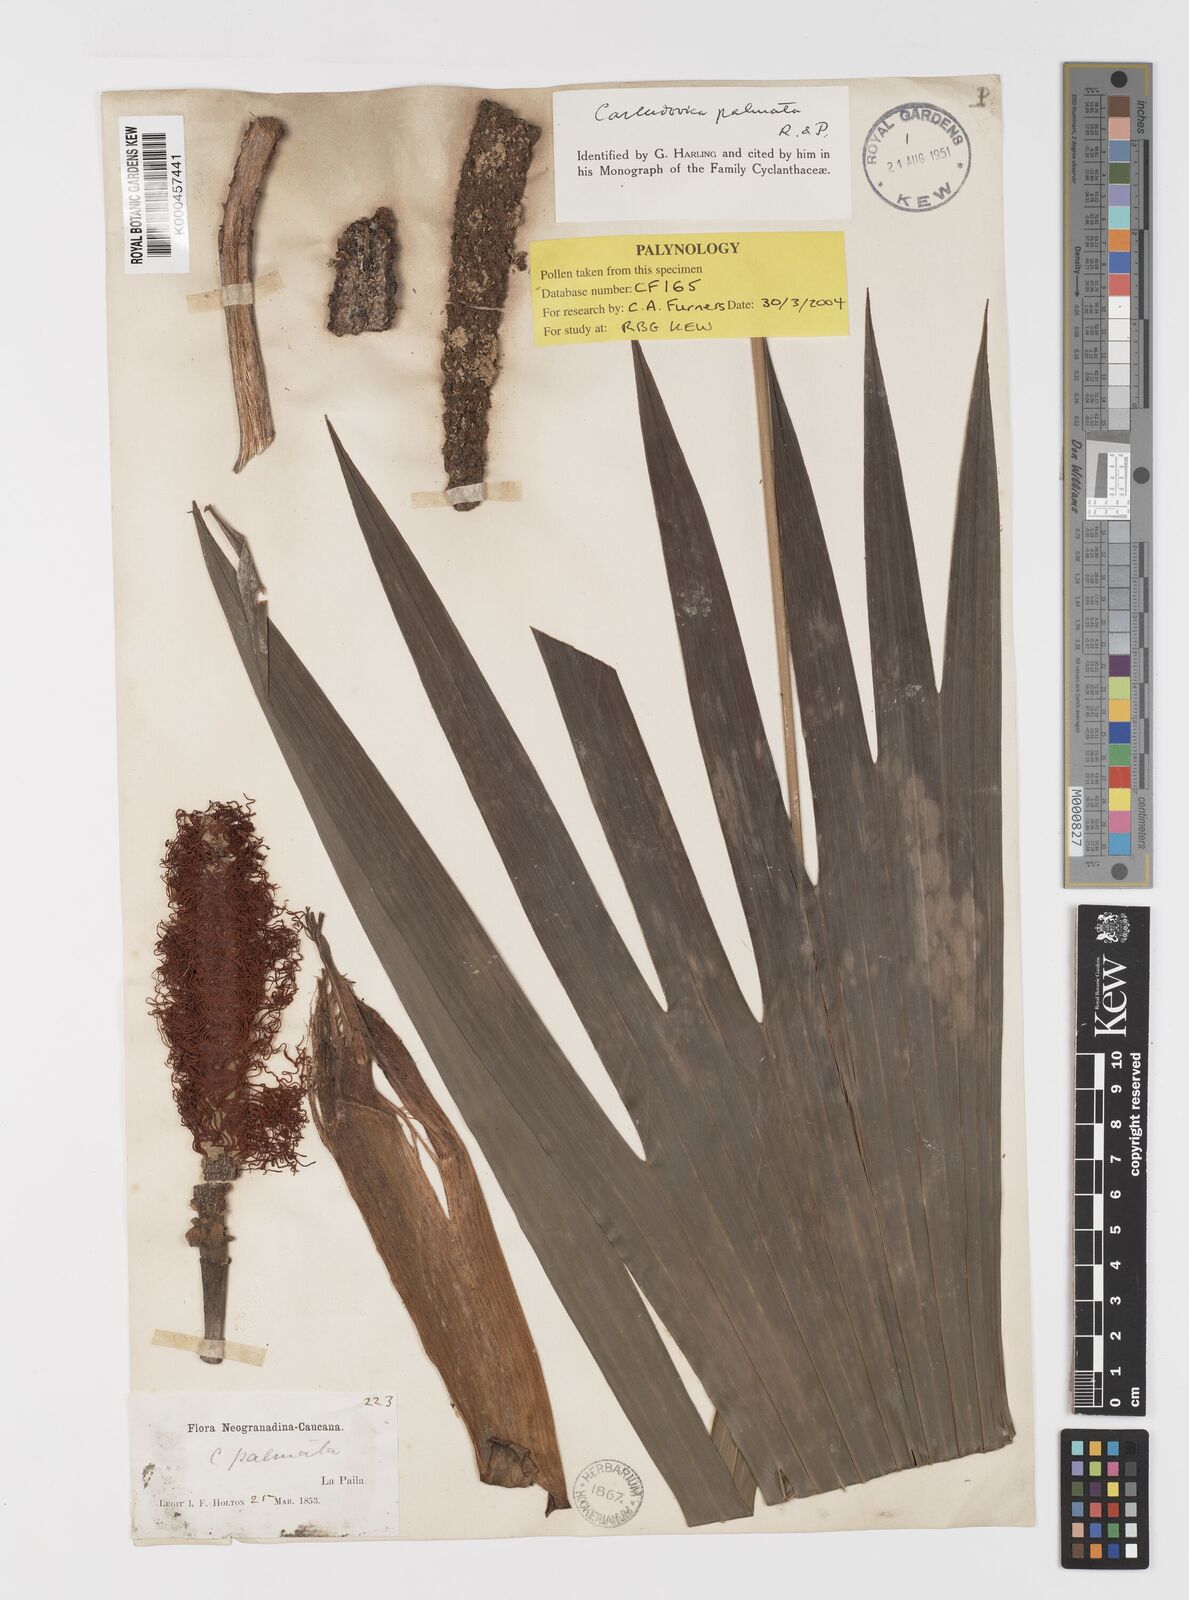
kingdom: Plantae
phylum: Tracheophyta
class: Liliopsida
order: Pandanales
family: Cyclanthaceae
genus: Carludovica
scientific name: Carludovica palmata
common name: Panama hat plant
